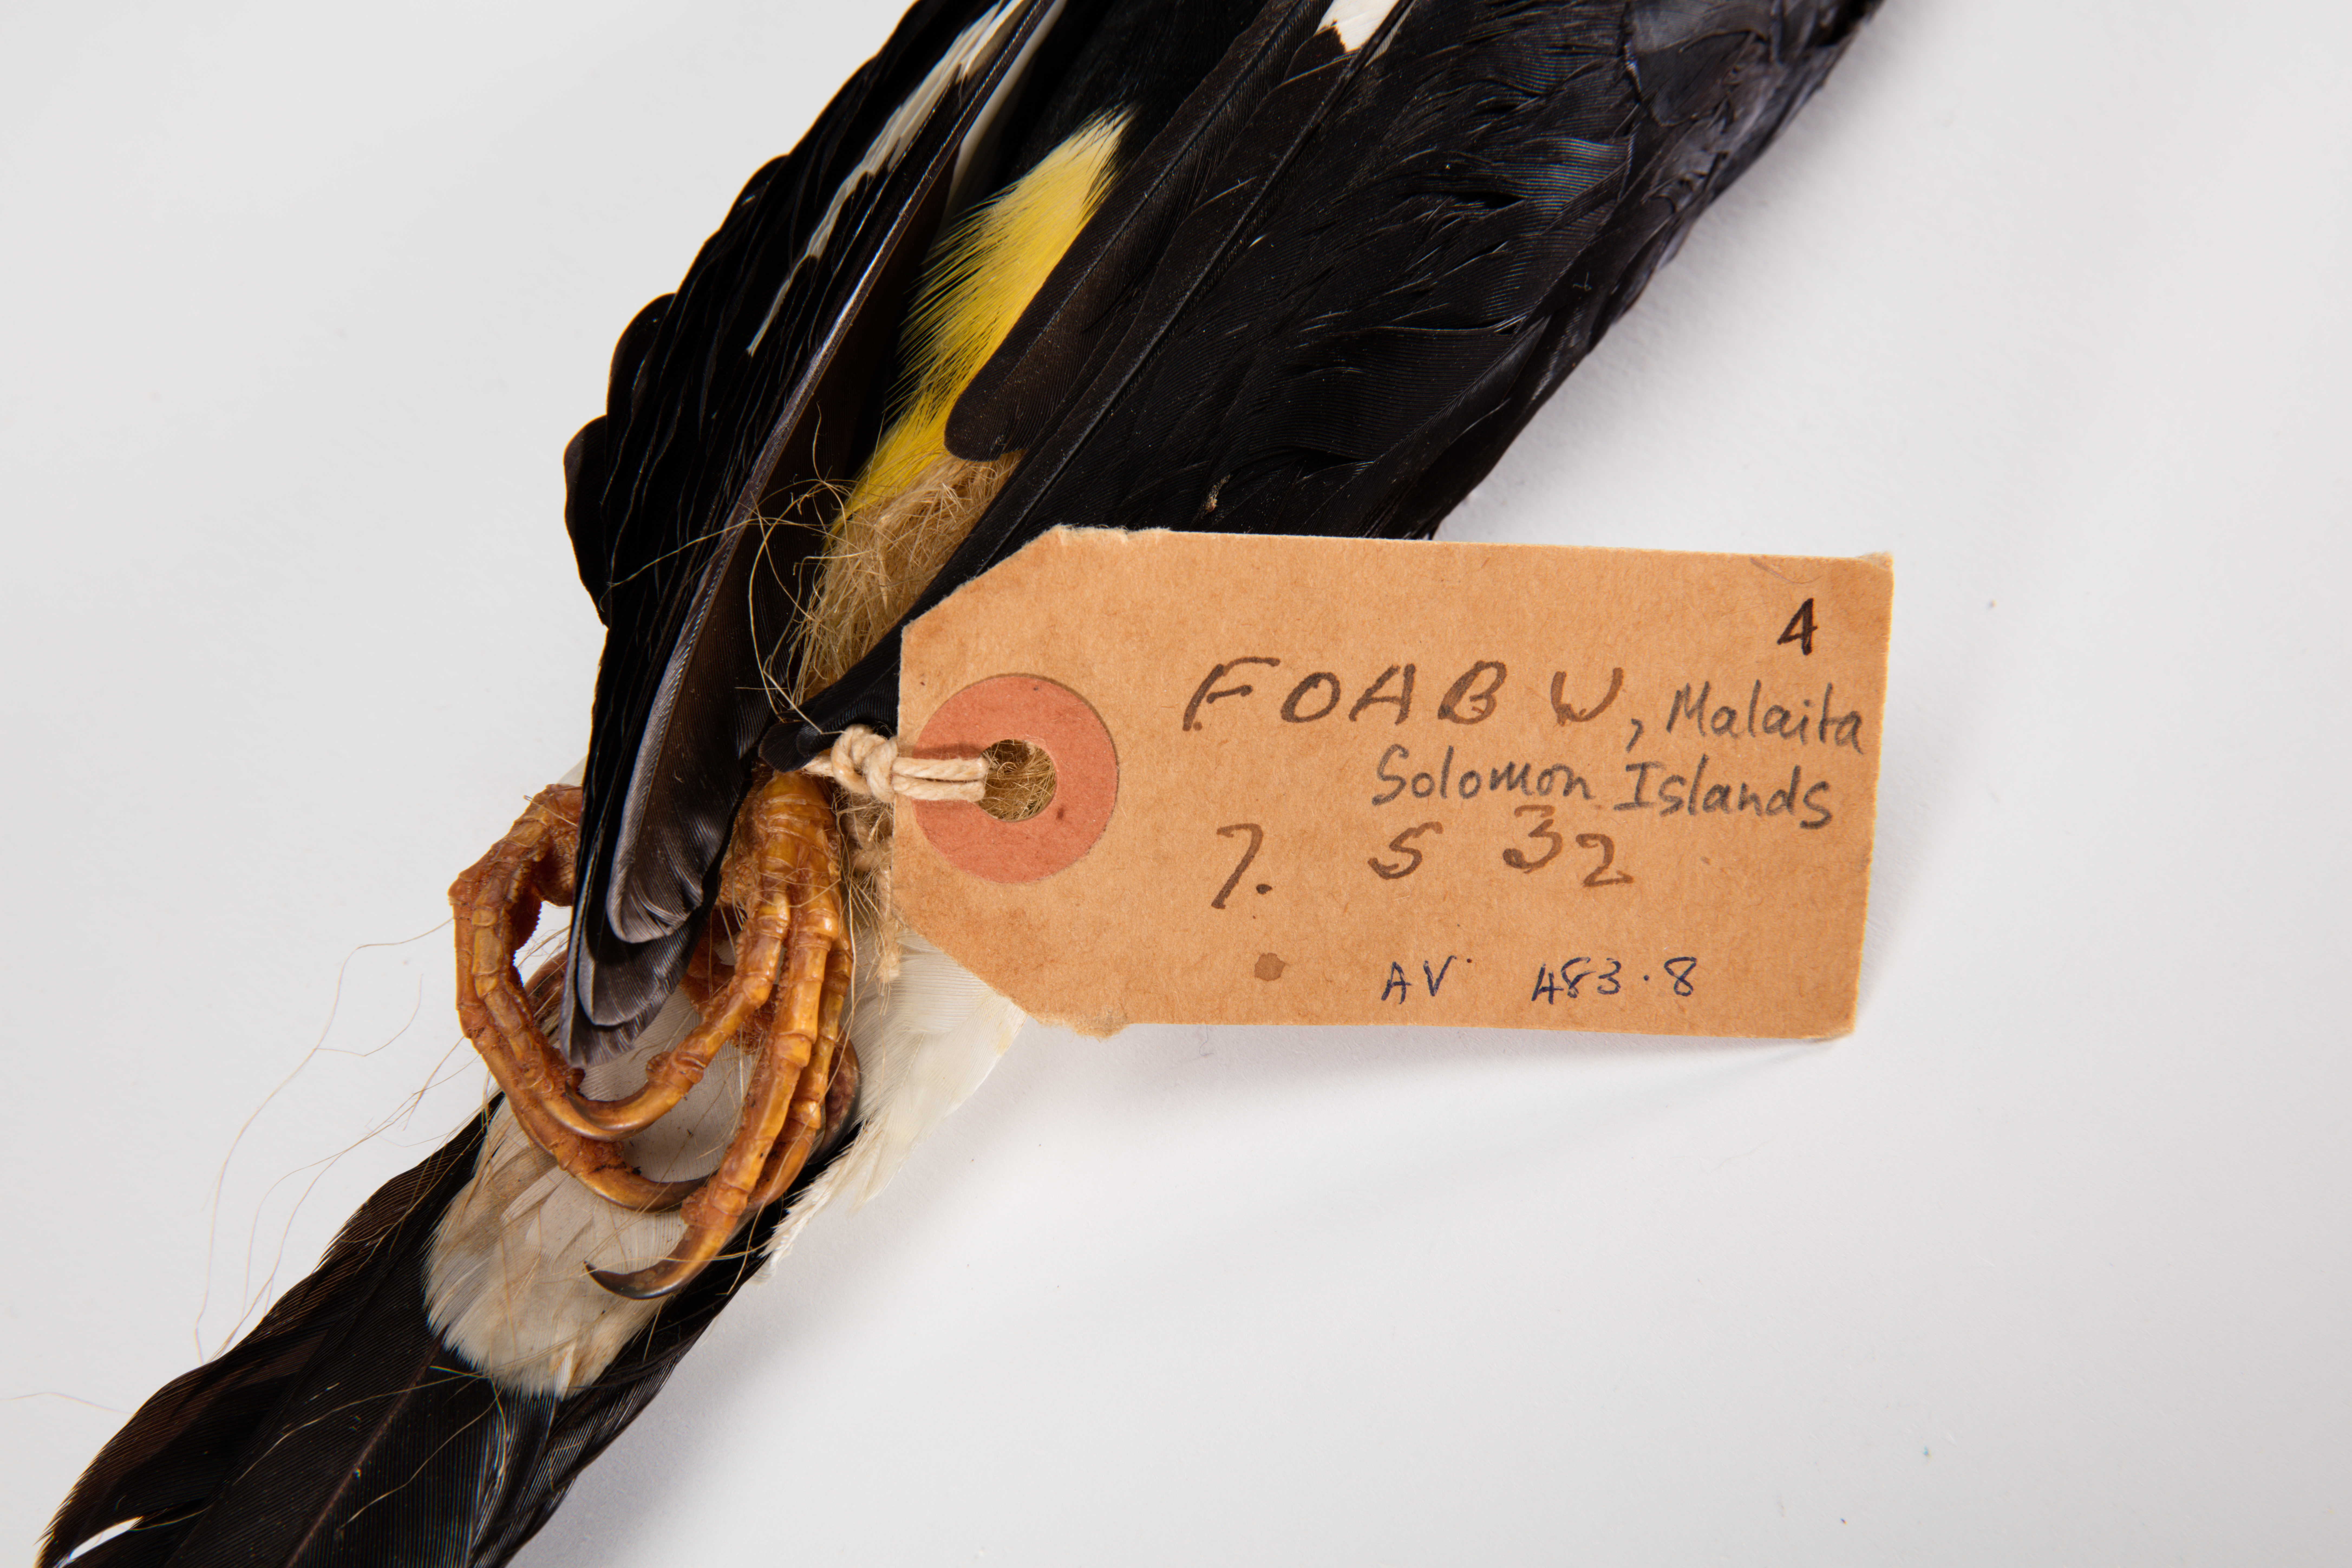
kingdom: Animalia
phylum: Chordata
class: Aves
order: Passeriformes
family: Sturnidae
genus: Mino
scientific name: Mino dumontii
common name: Yellow-faced myna
